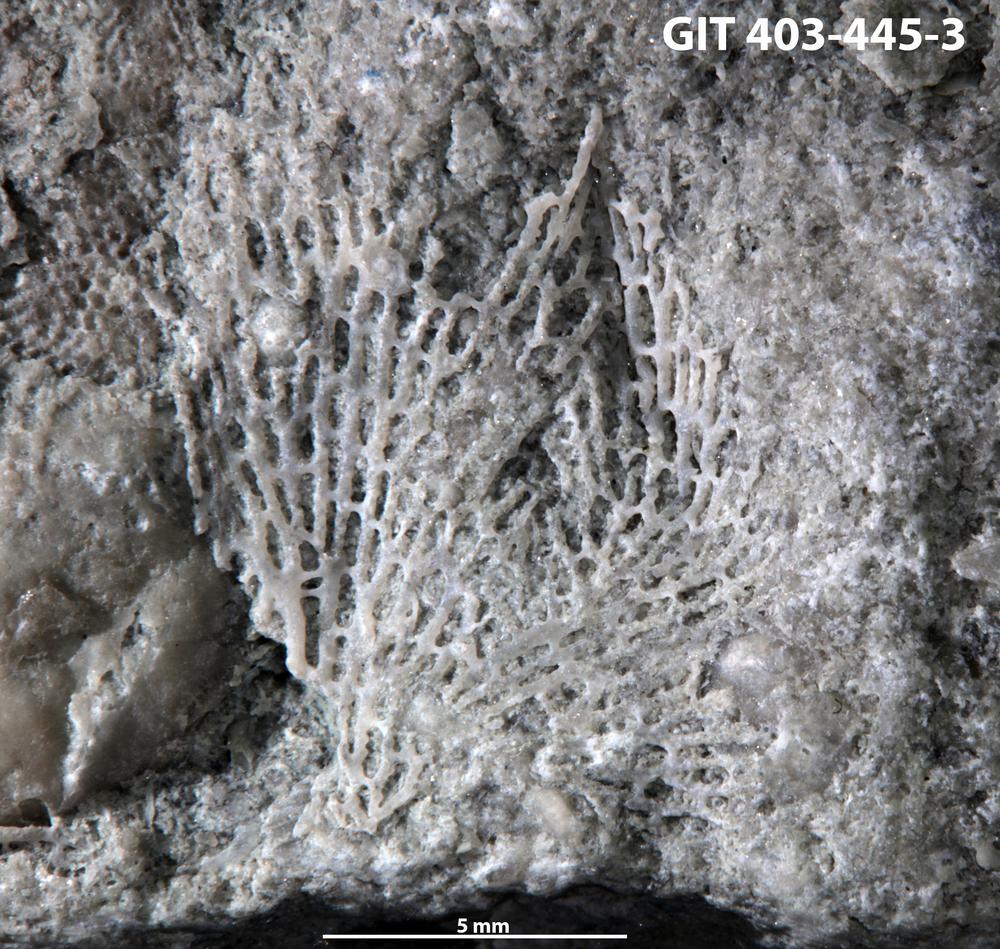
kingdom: Animalia
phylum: Bryozoa
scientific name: Bryozoa
